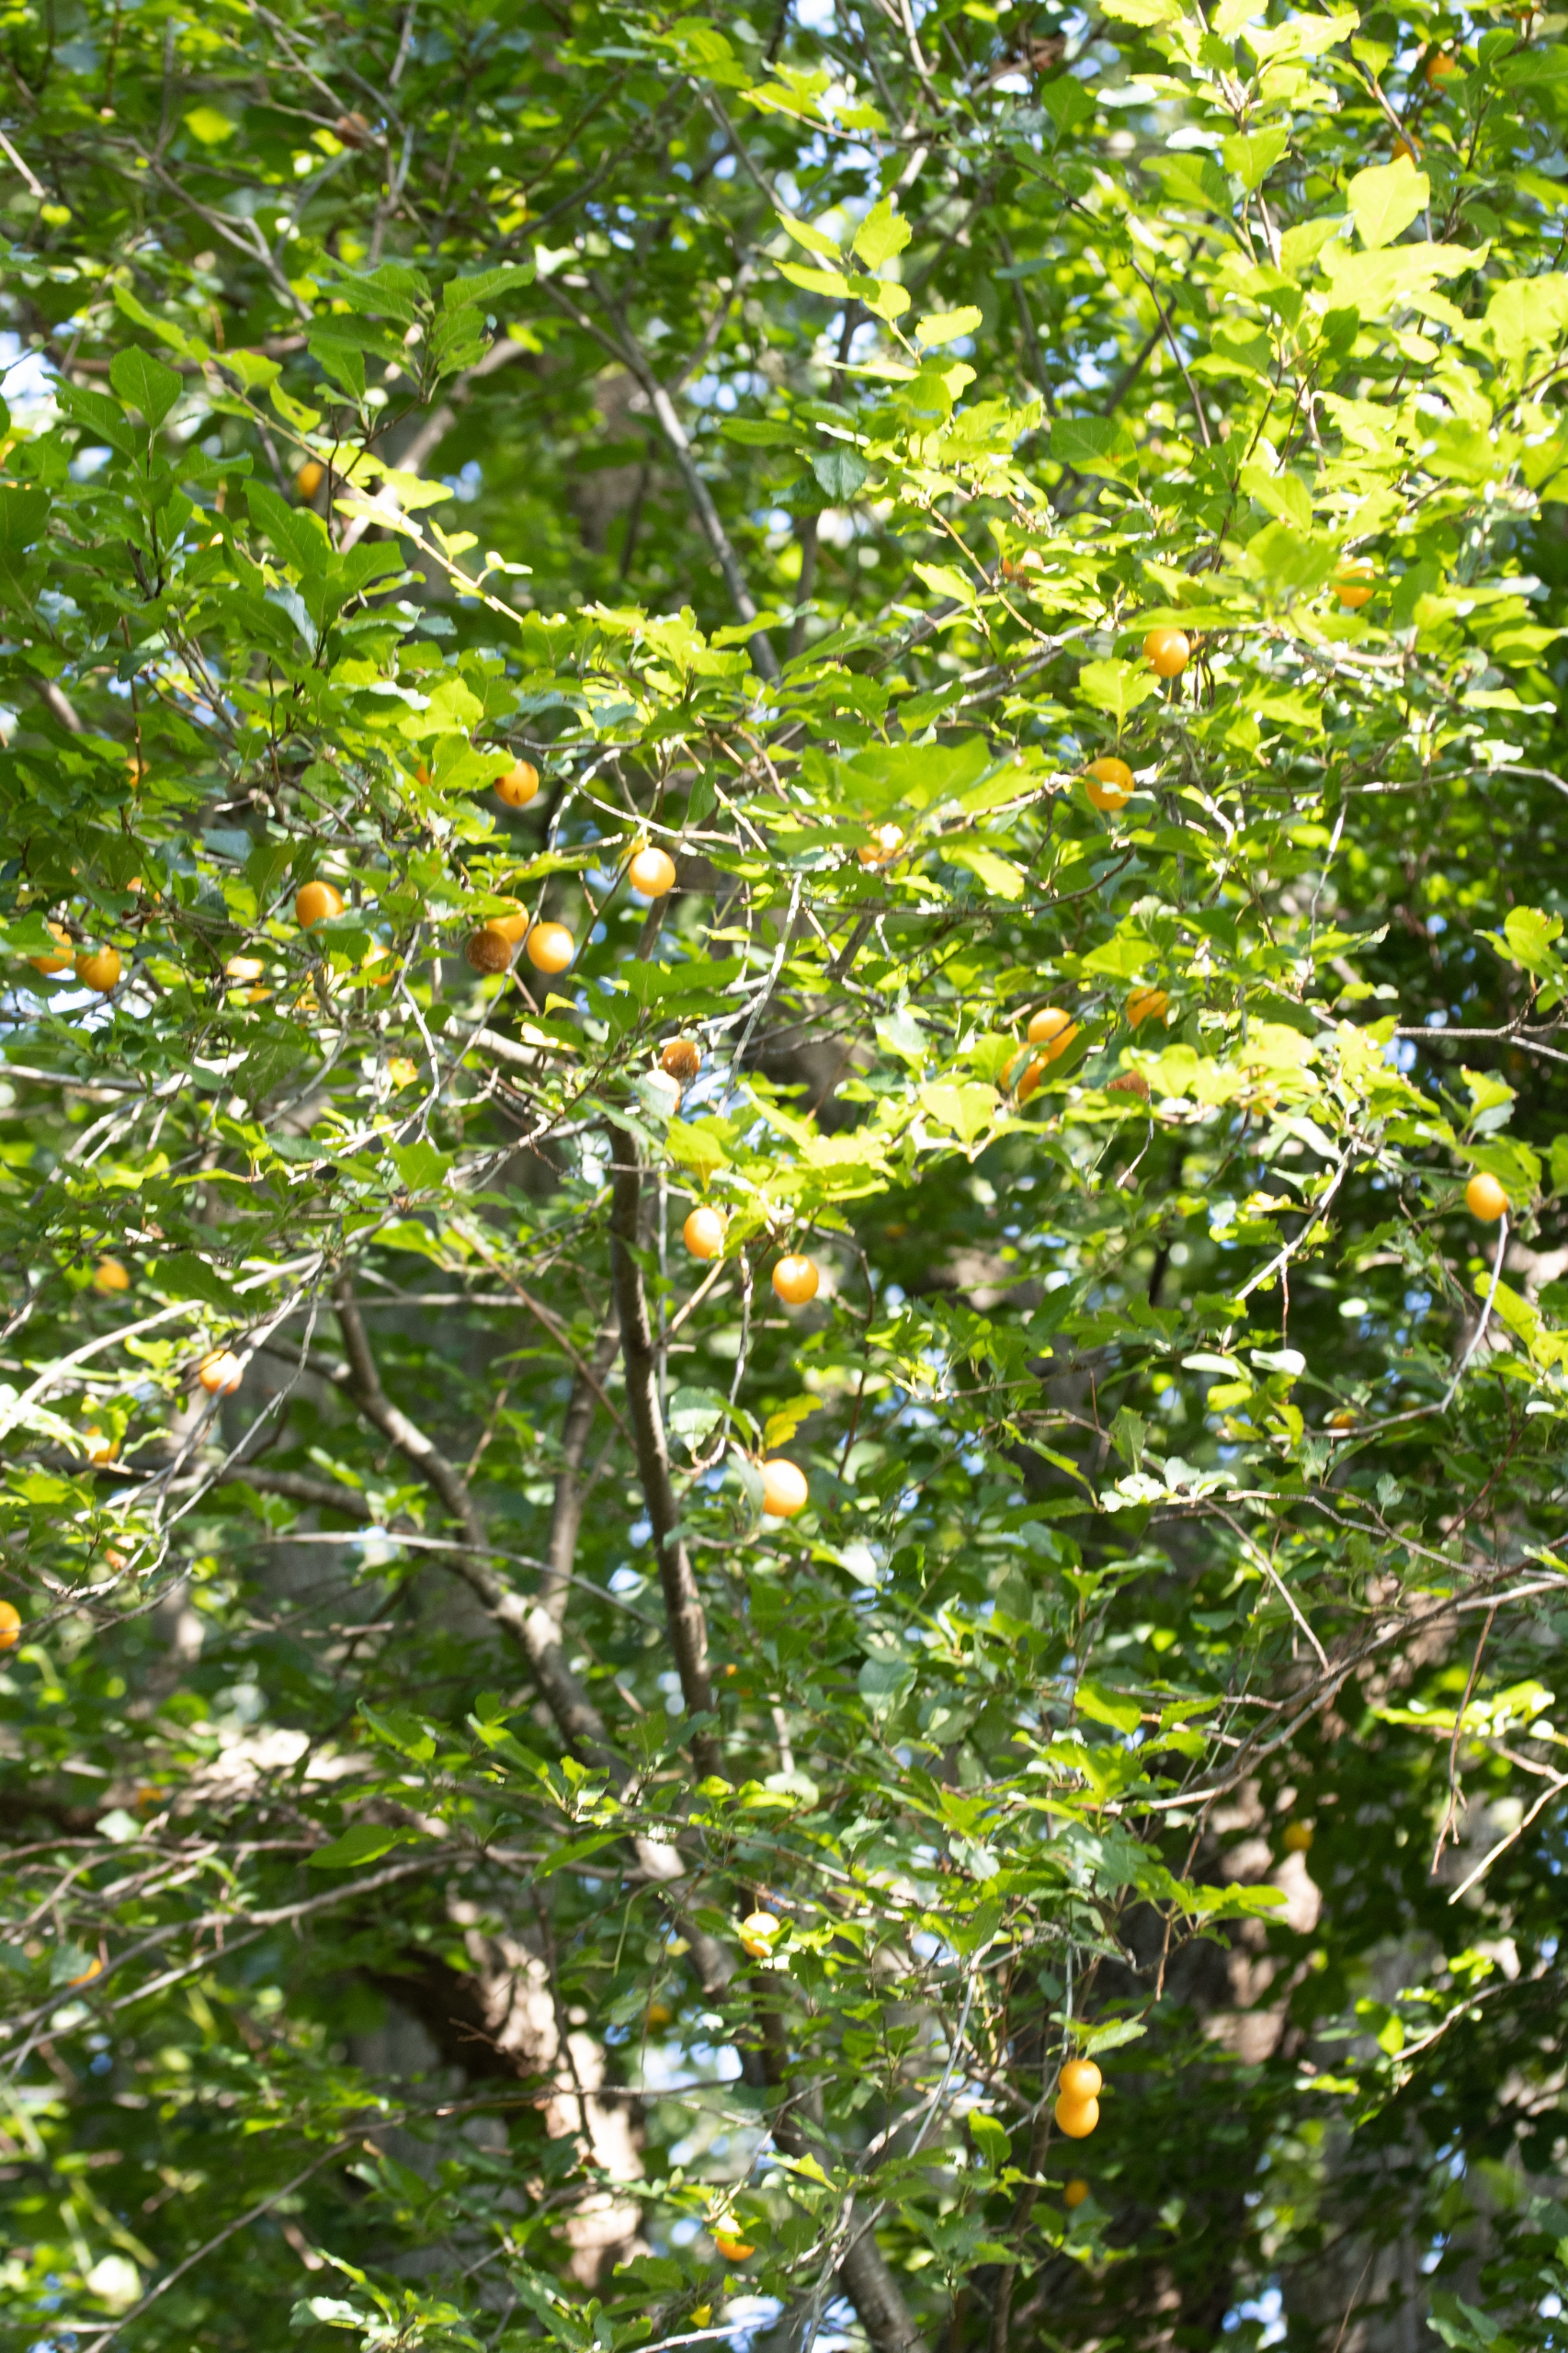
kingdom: Plantae
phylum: Tracheophyta
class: Magnoliopsida
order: Rosales
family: Rosaceae
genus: Prunus
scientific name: Prunus cerasifera
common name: Mirabel
